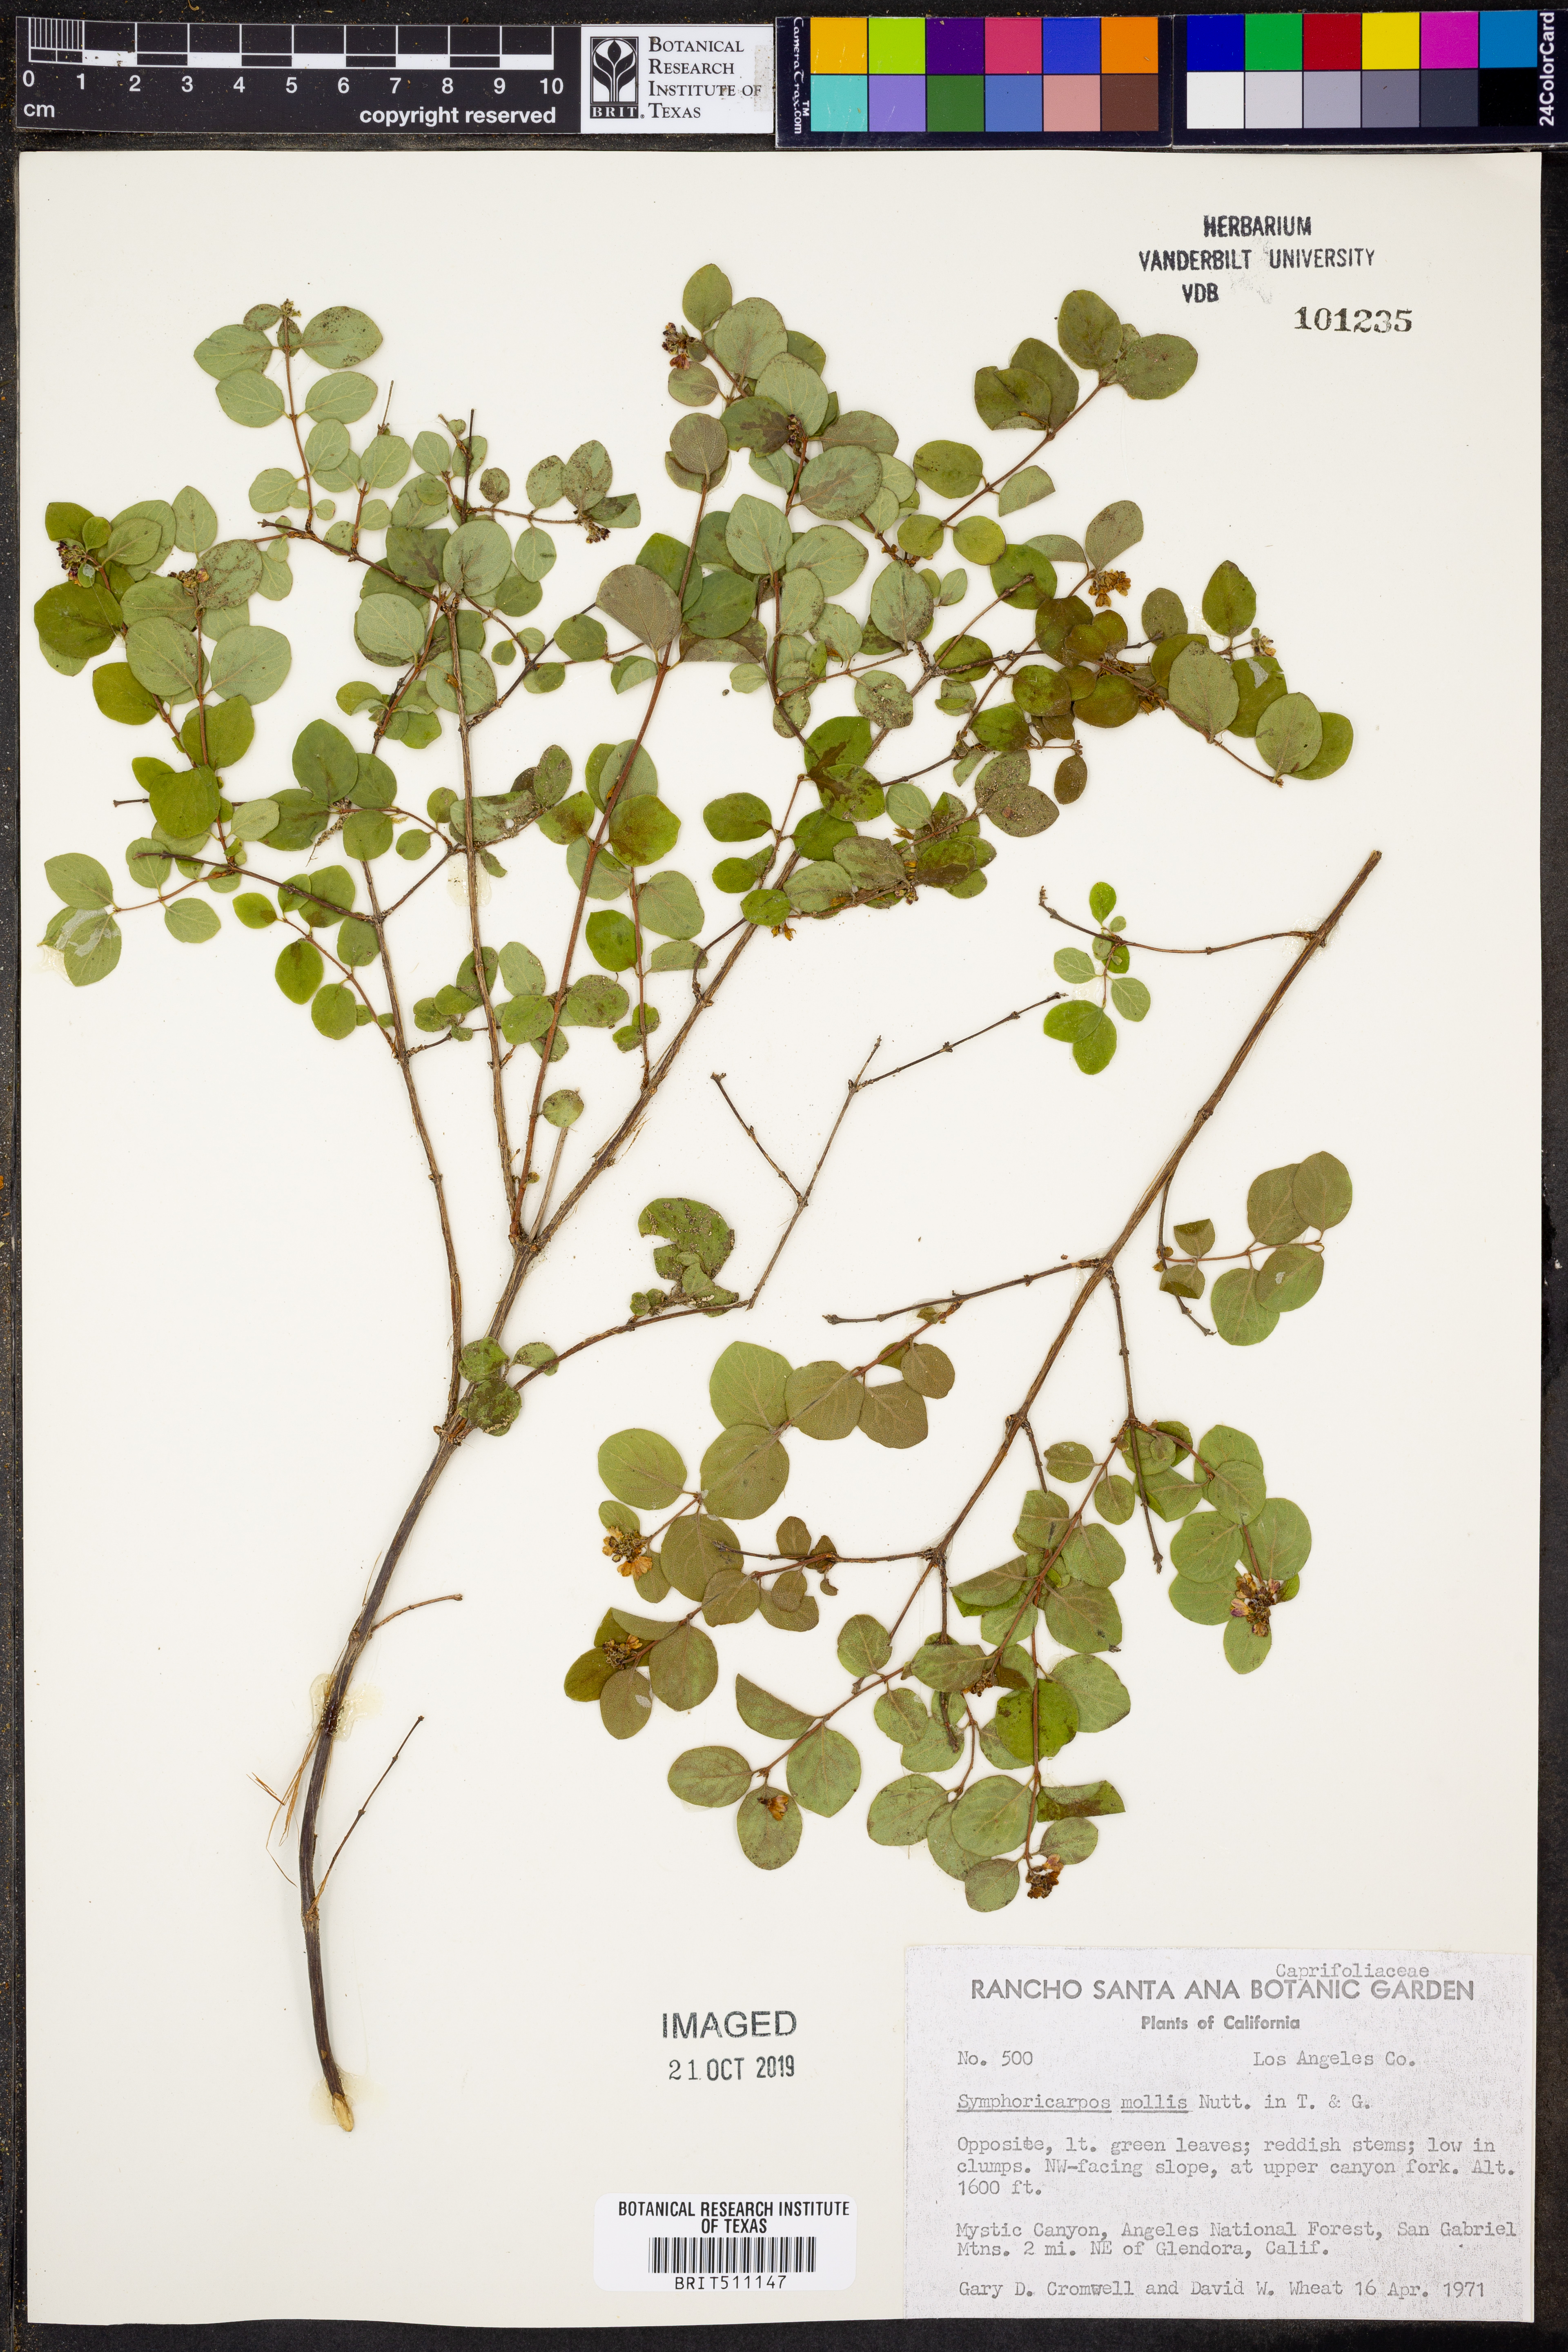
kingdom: Plantae
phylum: Tracheophyta
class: Magnoliopsida
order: Dipsacales
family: Caprifoliaceae
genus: Symphoricarpos
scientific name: Symphoricarpos mollis
